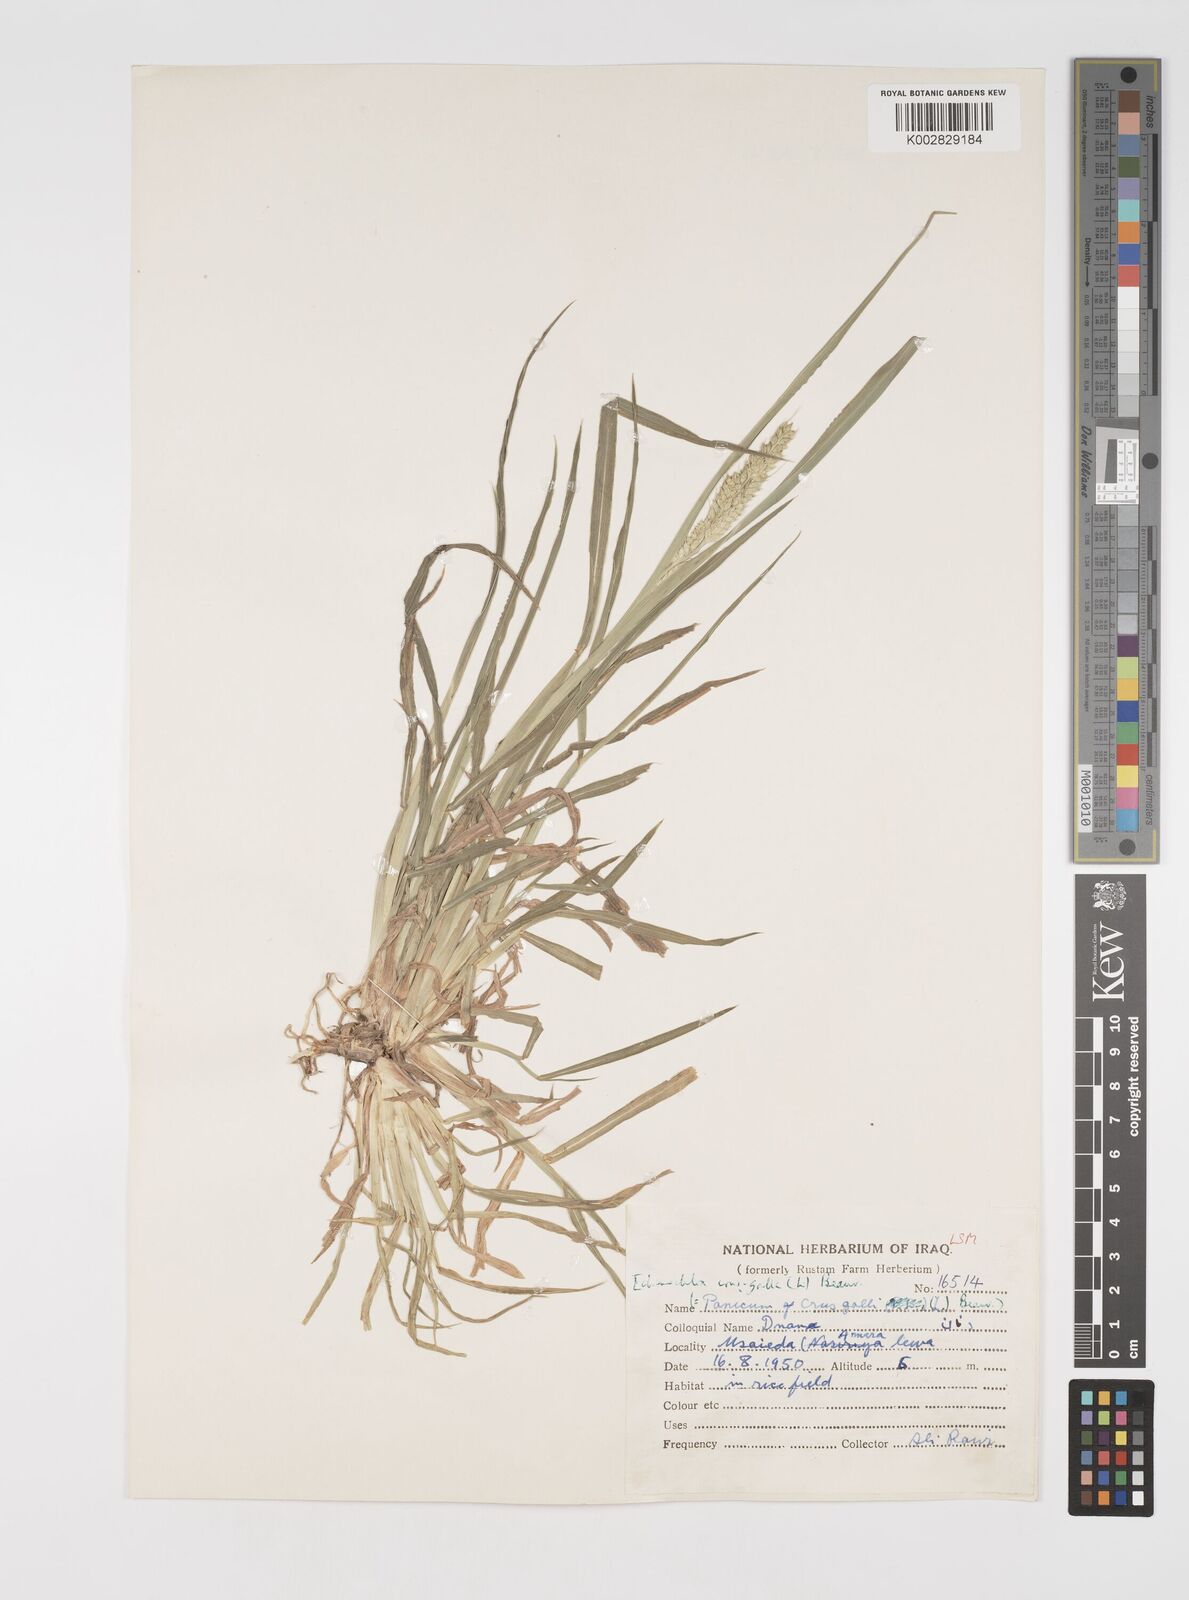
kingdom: Plantae
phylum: Tracheophyta
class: Liliopsida
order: Poales
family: Poaceae
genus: Echinochloa
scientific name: Echinochloa crus-galli
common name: Cockspur
